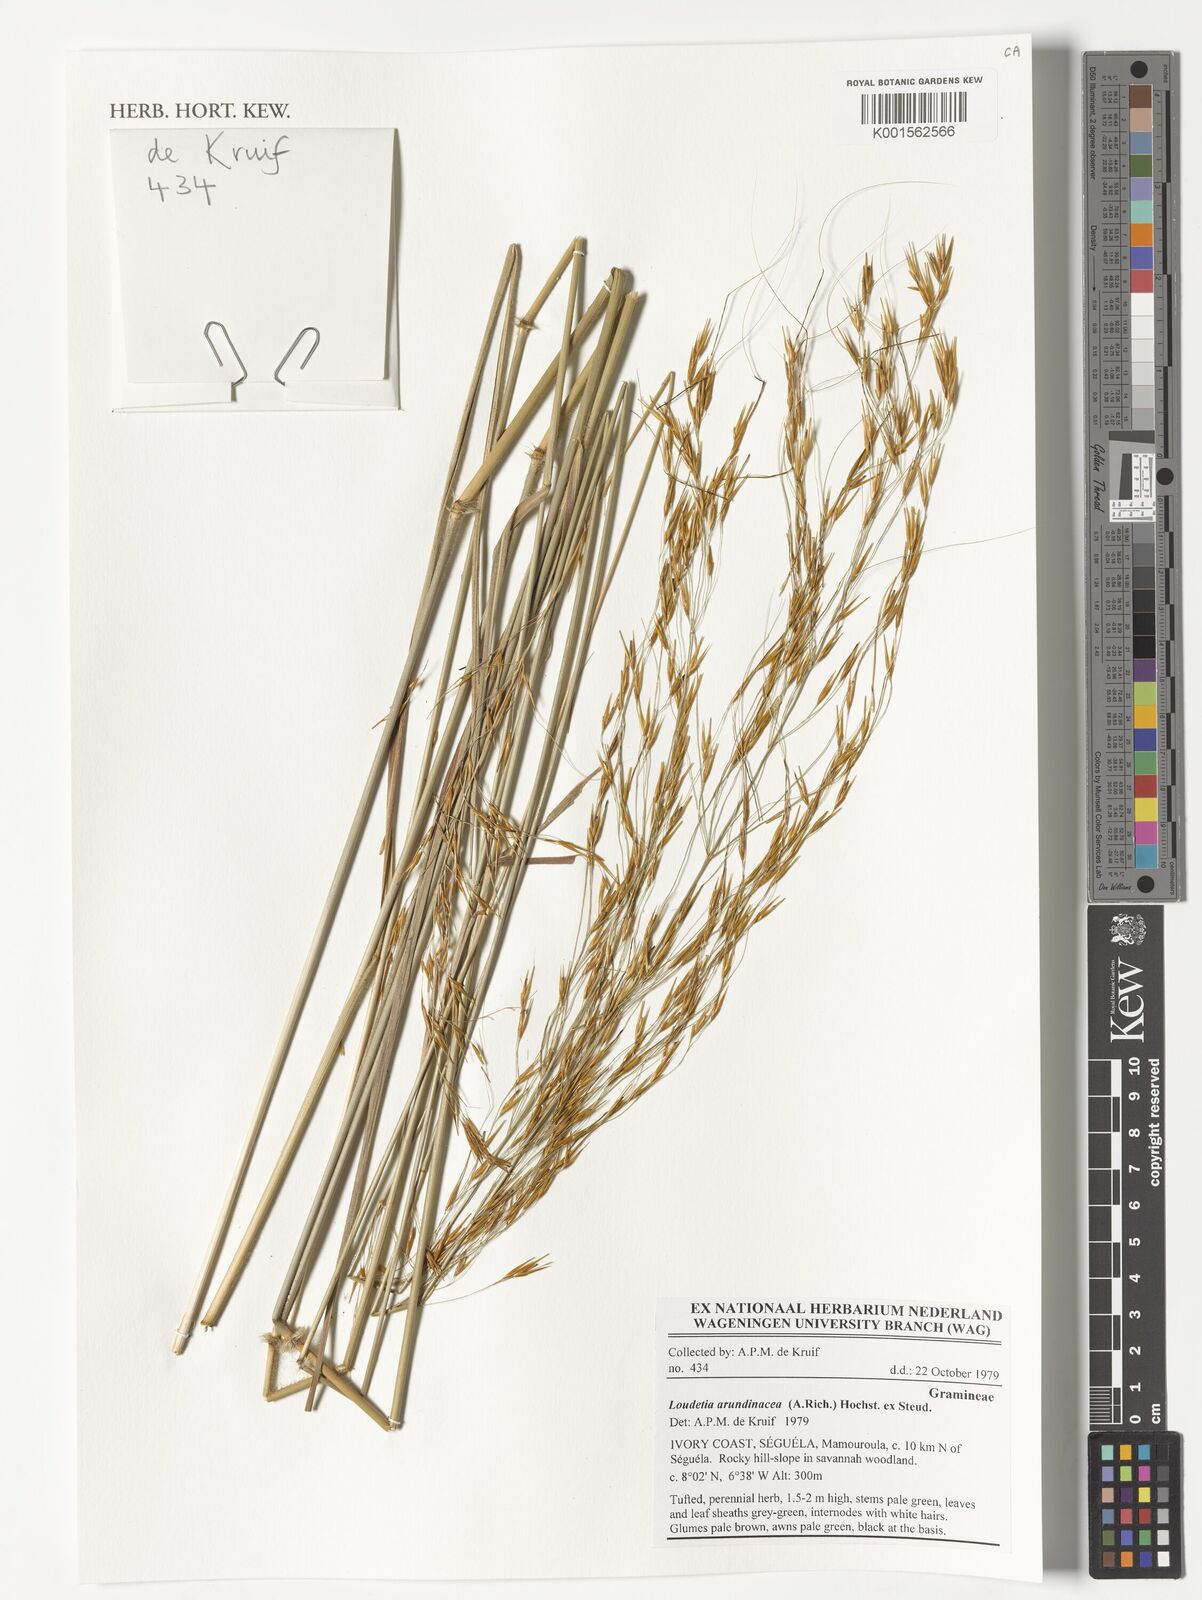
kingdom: Plantae
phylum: Tracheophyta
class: Liliopsida
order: Poales
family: Poaceae
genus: Loudetia
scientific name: Loudetia arundinacea
